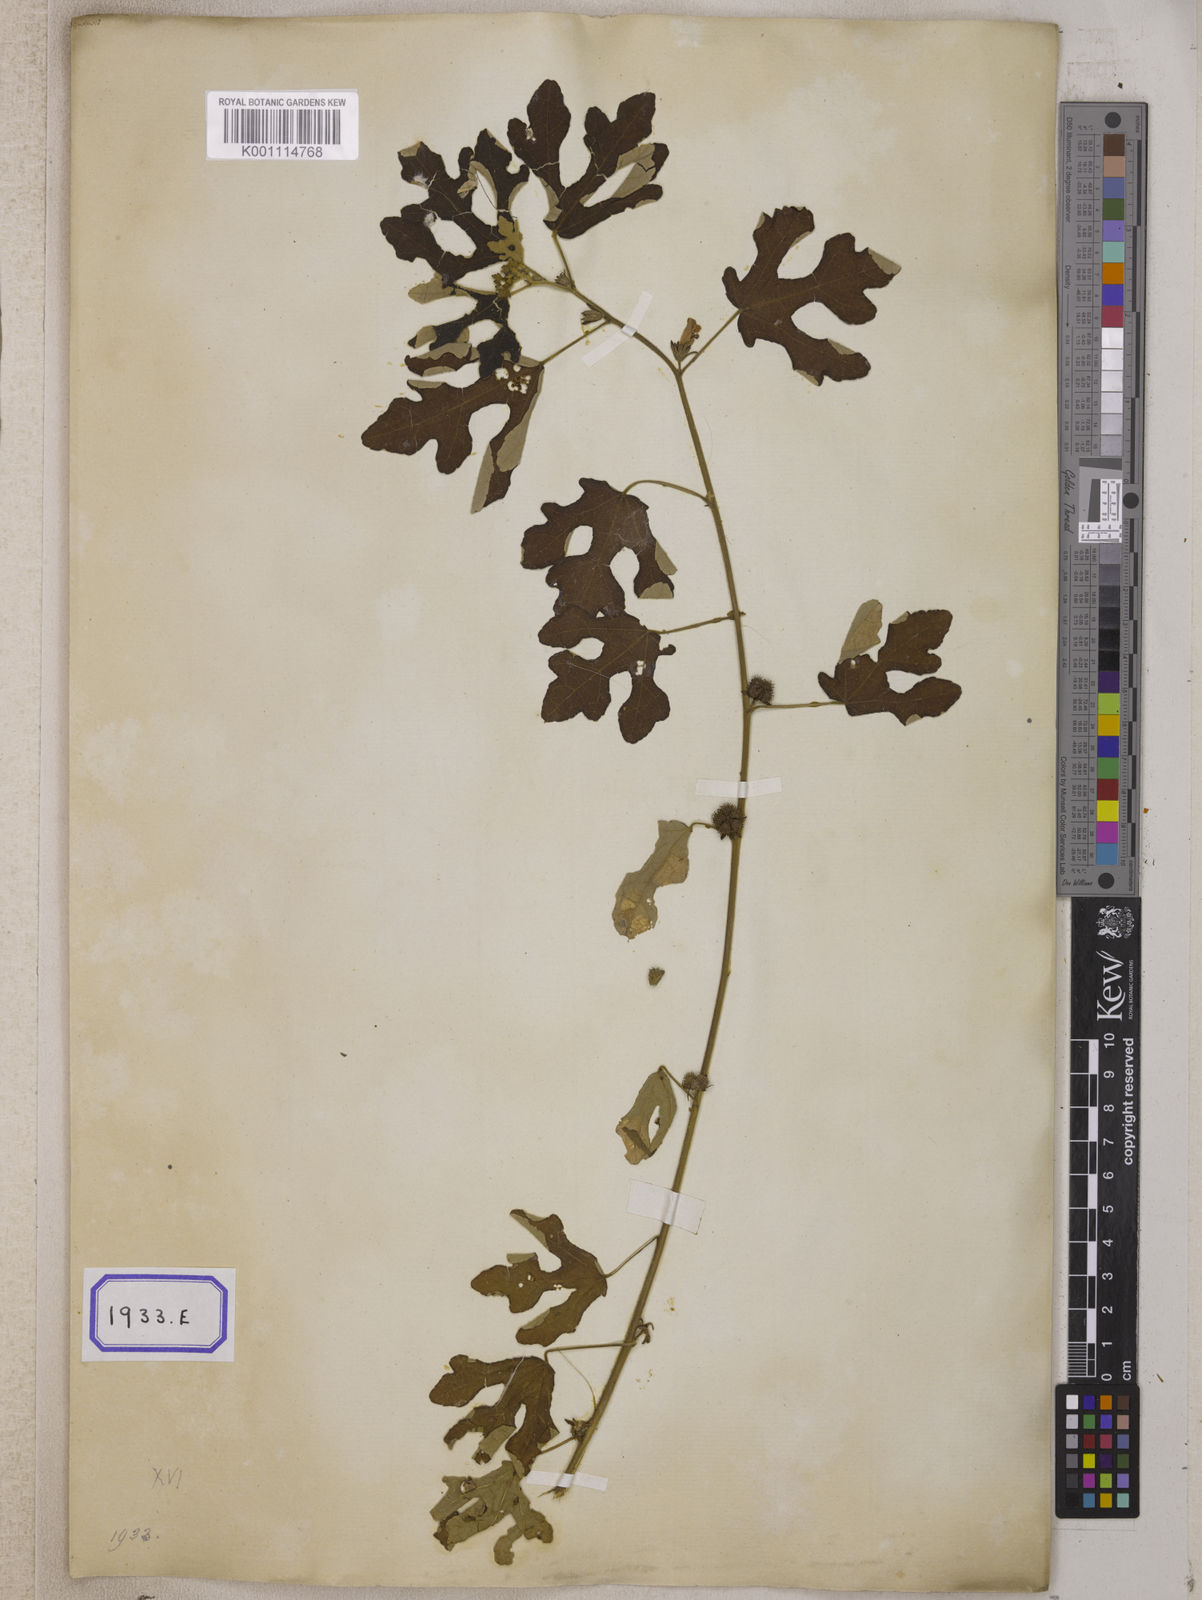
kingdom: Plantae
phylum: Tracheophyta
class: Magnoliopsida
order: Malvales
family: Malvaceae
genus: Urena
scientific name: Urena procumbens
